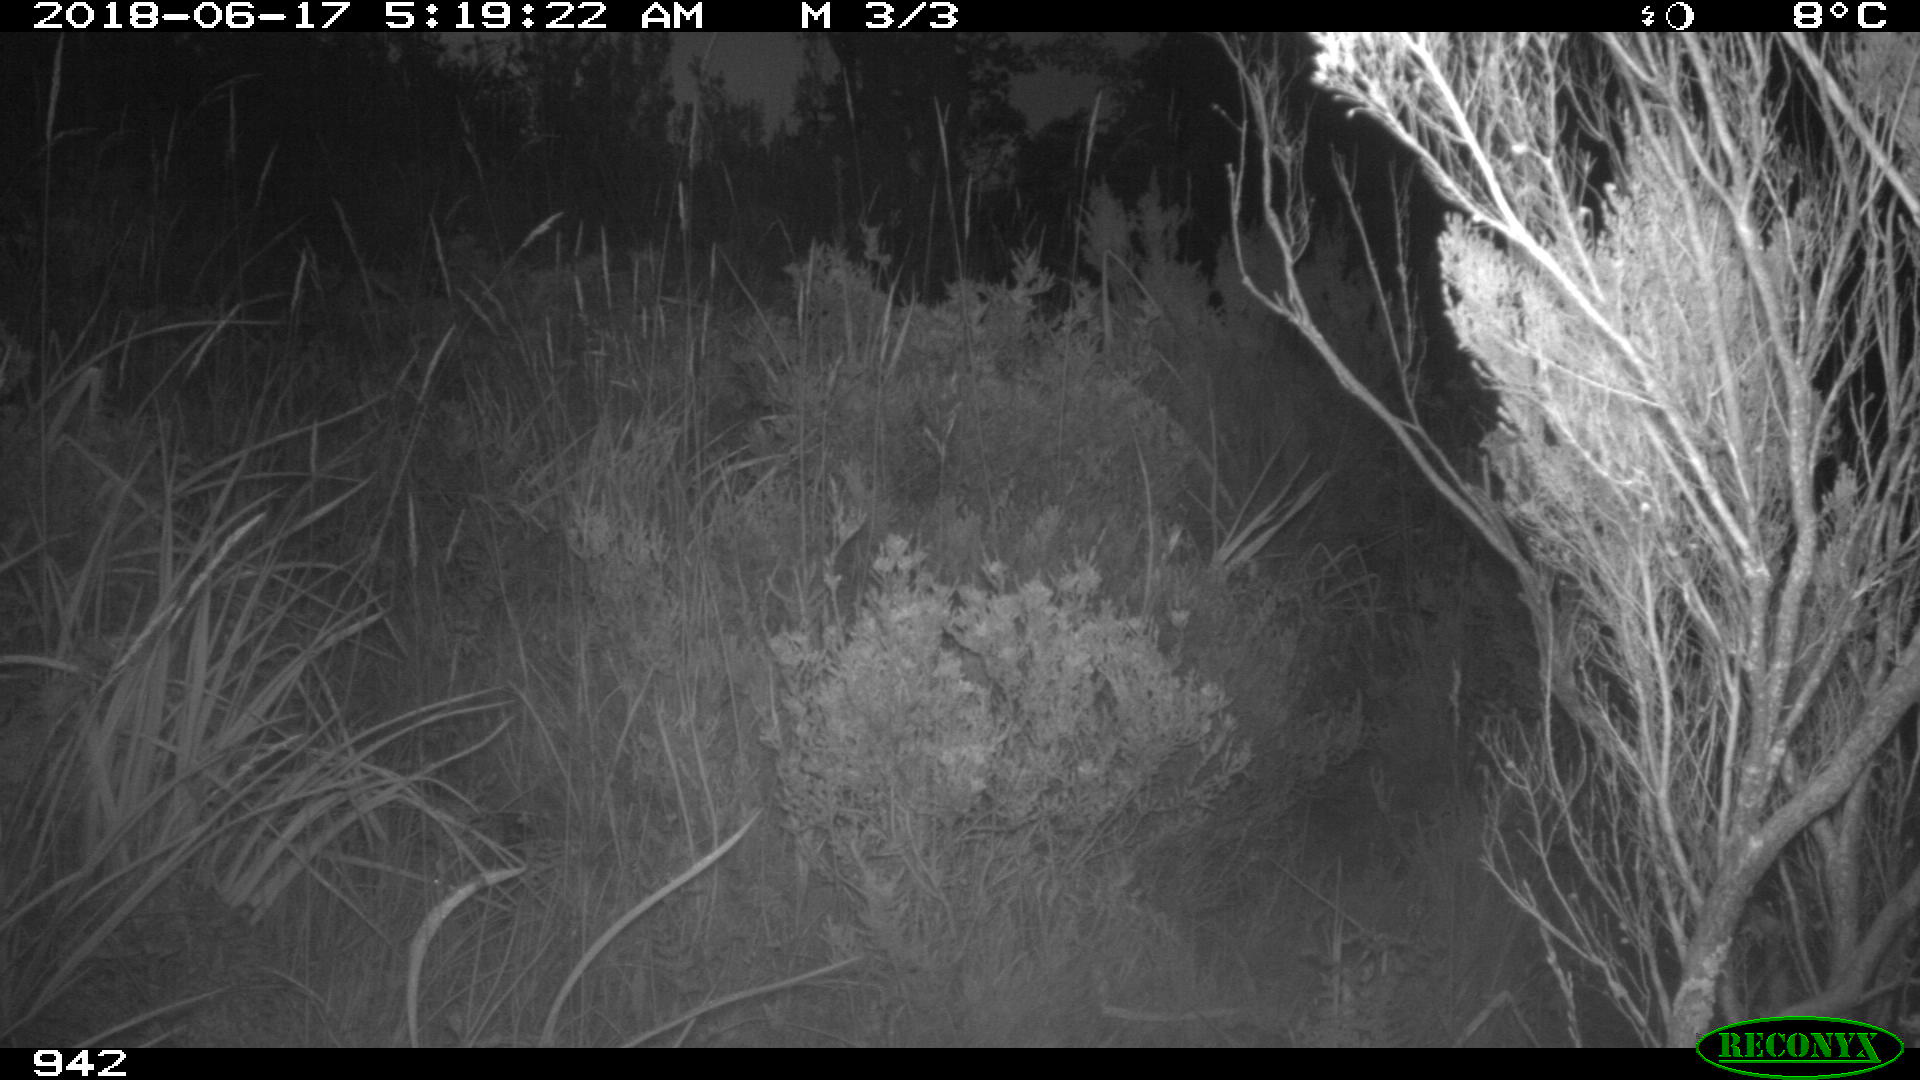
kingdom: Animalia
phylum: Chordata
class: Mammalia
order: Carnivora
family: Canidae
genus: Canis
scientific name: Canis lupus
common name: Gray wolf
